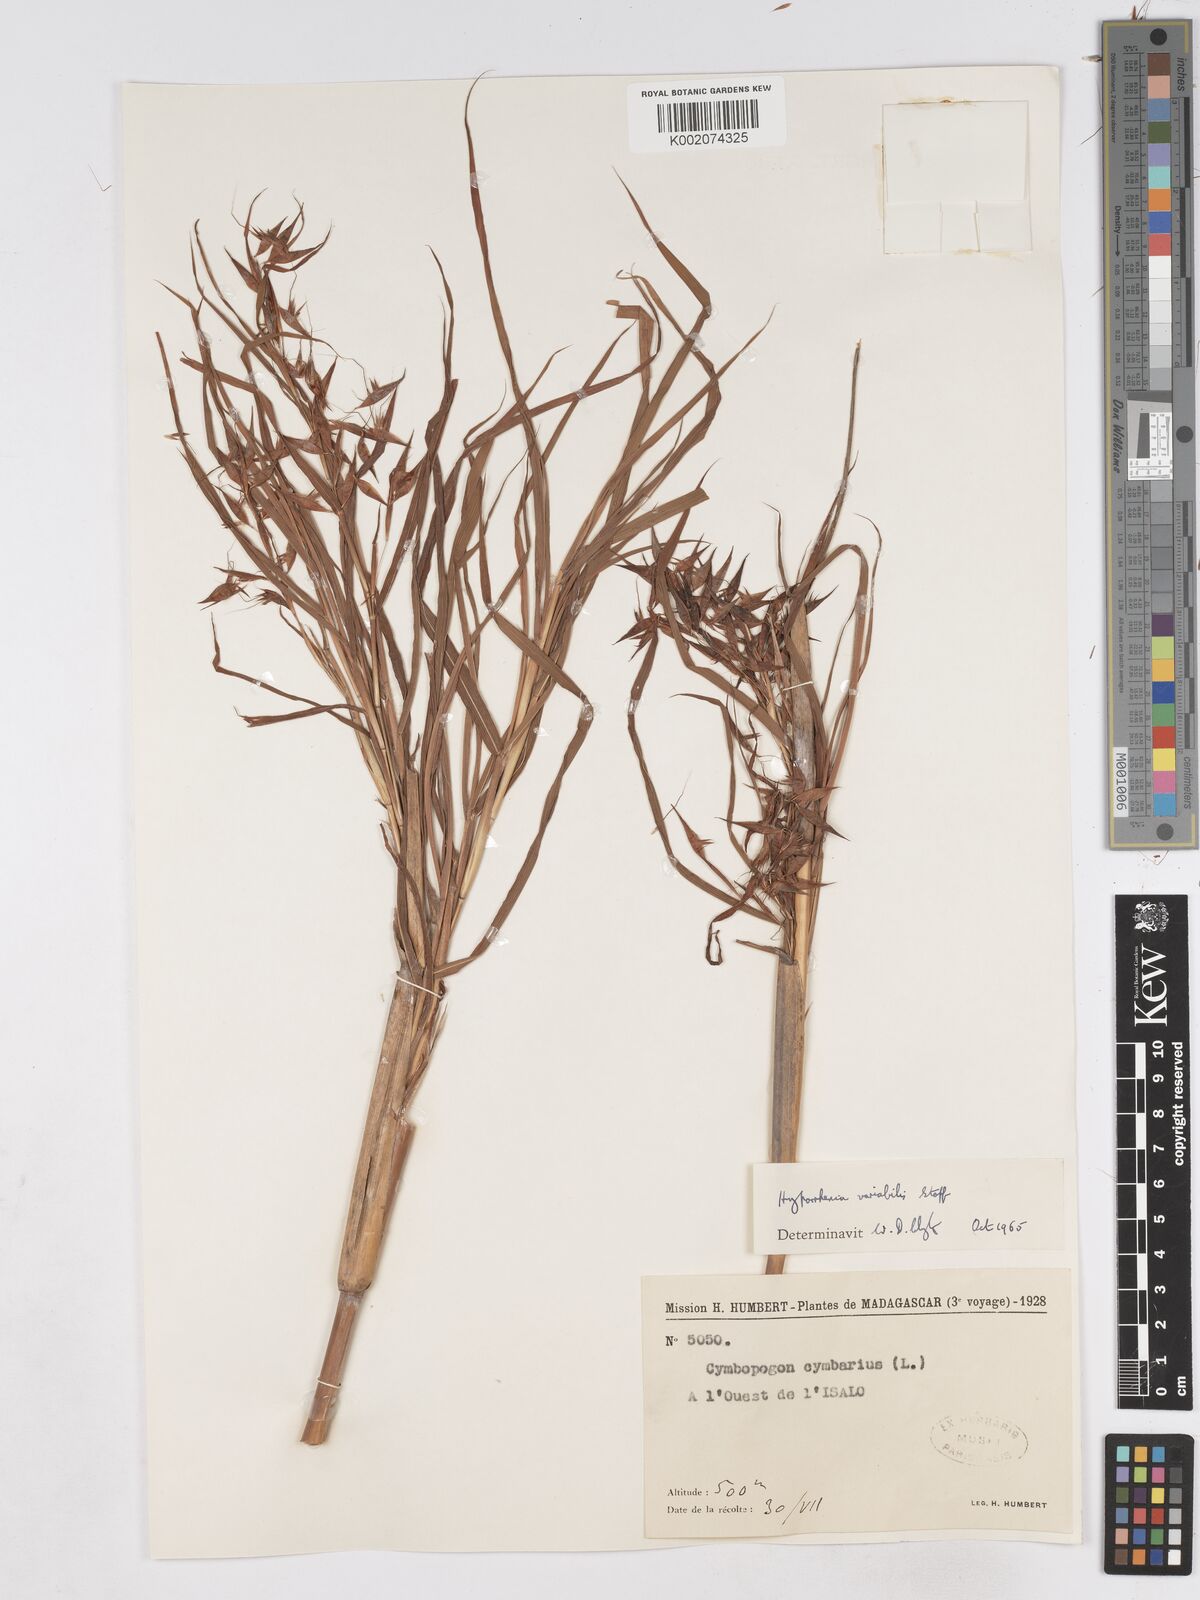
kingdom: Plantae
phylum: Tracheophyta
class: Liliopsida
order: Poales
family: Poaceae
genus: Hyparrhenia
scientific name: Hyparrhenia variabilis
